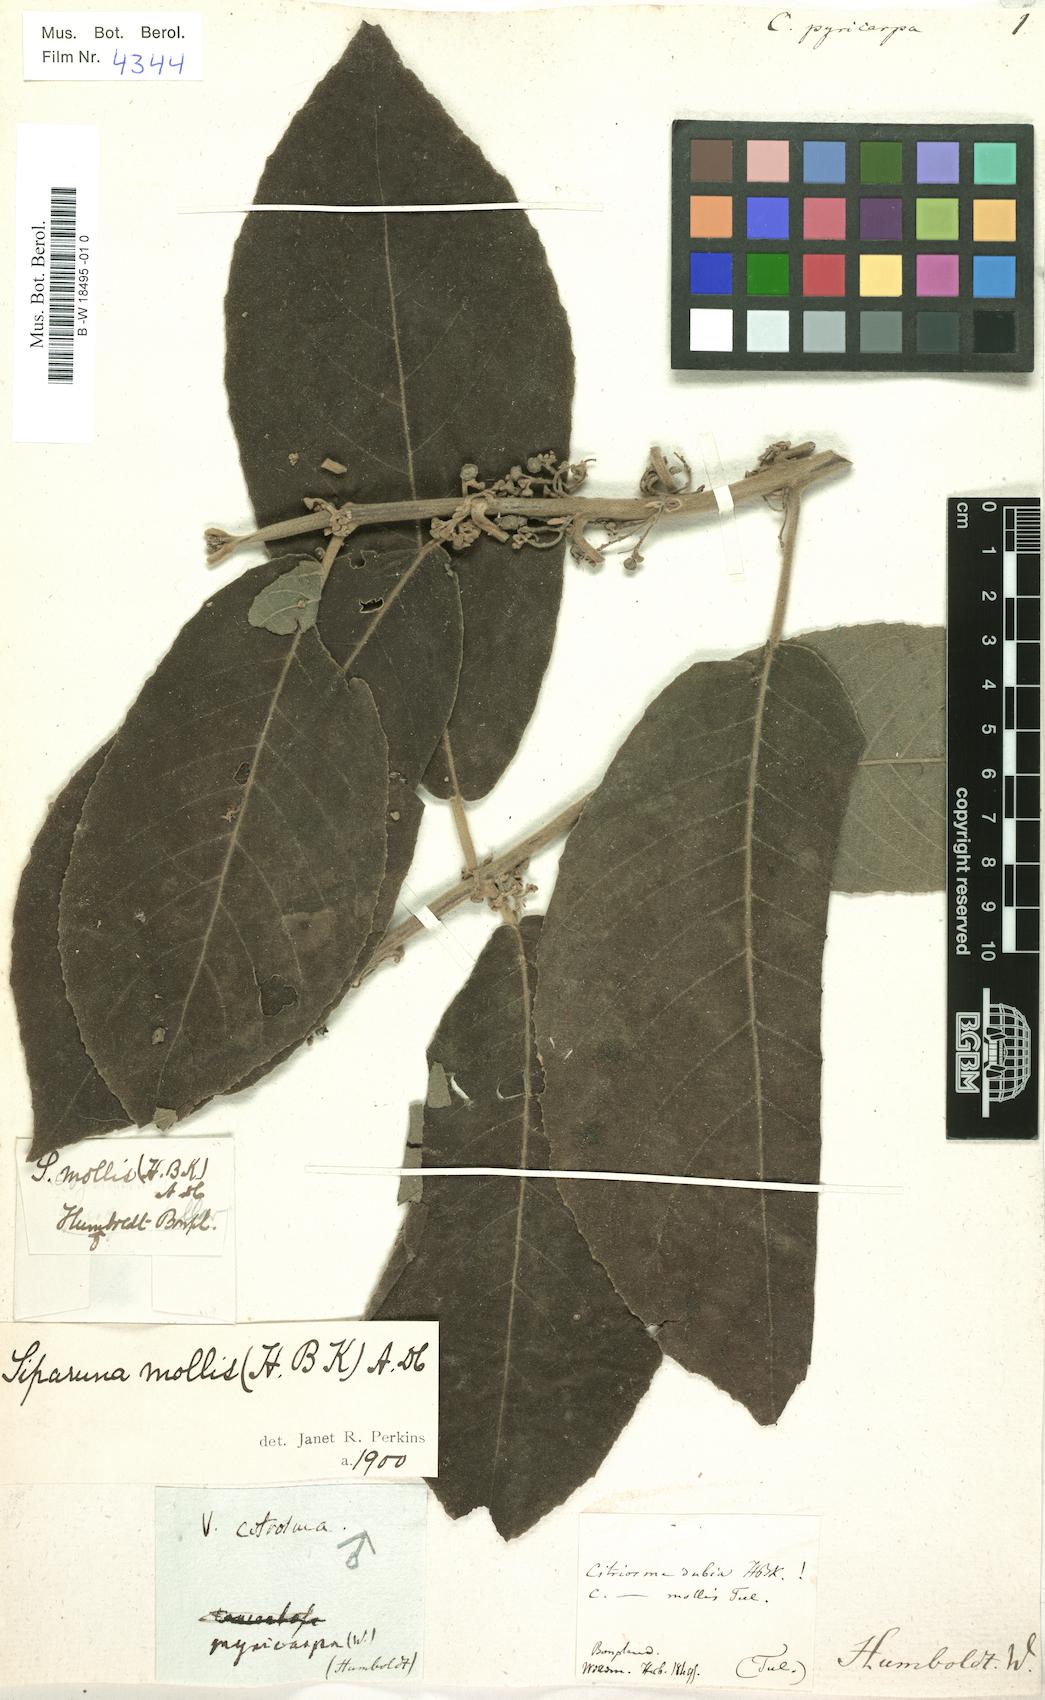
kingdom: Plantae
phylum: Tracheophyta
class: Magnoliopsida
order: Laurales
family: Siparunaceae
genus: Siparuna
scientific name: Siparuna sessiliflora
